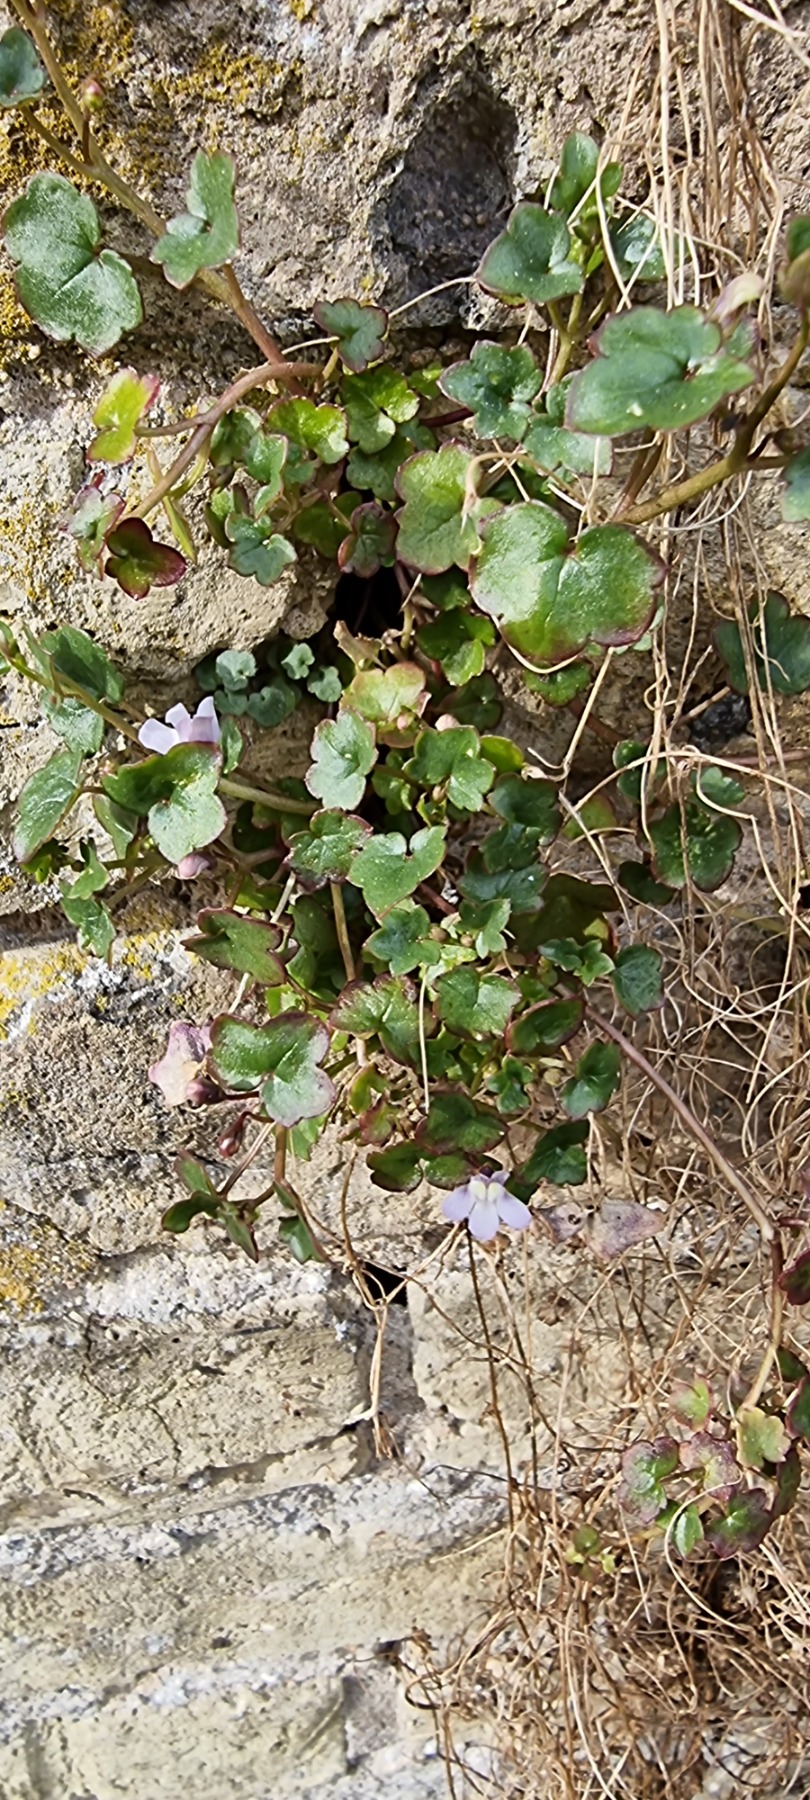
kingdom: Plantae
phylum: Tracheophyta
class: Magnoliopsida
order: Lamiales
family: Plantaginaceae
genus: Cymbalaria
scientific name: Cymbalaria muralis
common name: Vedbend-torskemund
